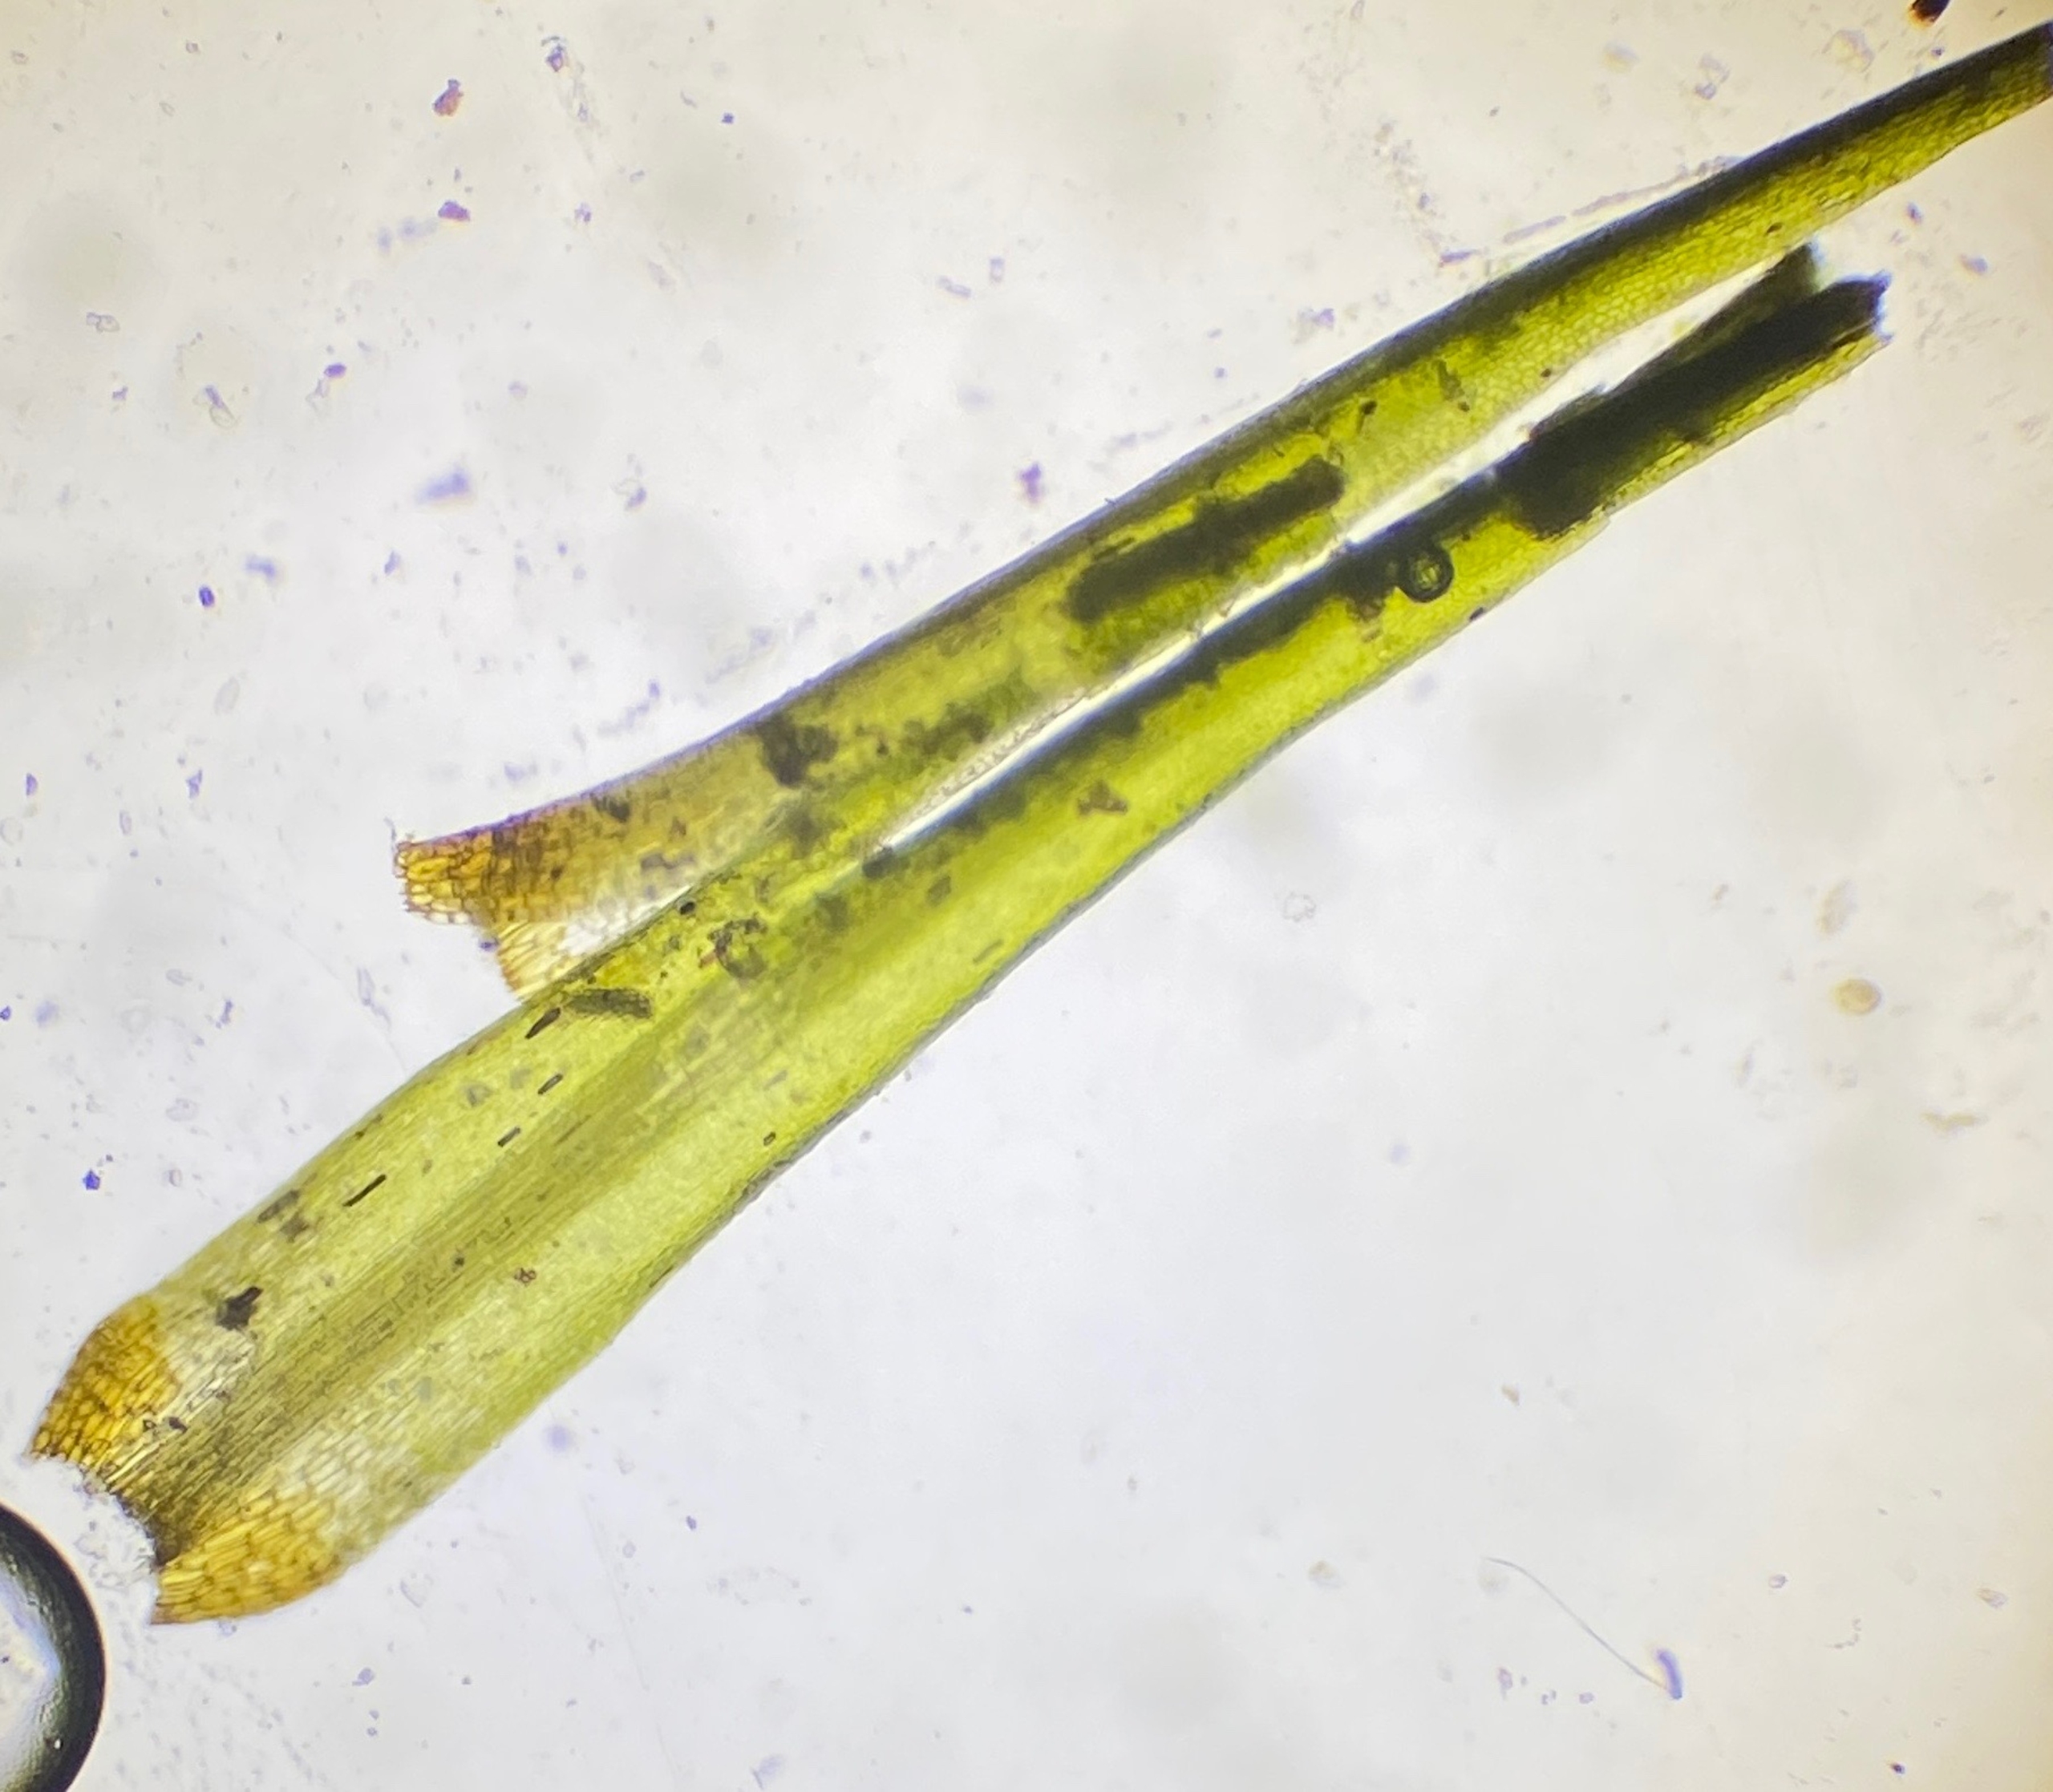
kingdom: Plantae
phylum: Bryophyta
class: Bryopsida
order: Dicranales
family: Dicranaceae
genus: Orthodicranum
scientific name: Orthodicranum tauricum
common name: Skør tyndvinge
